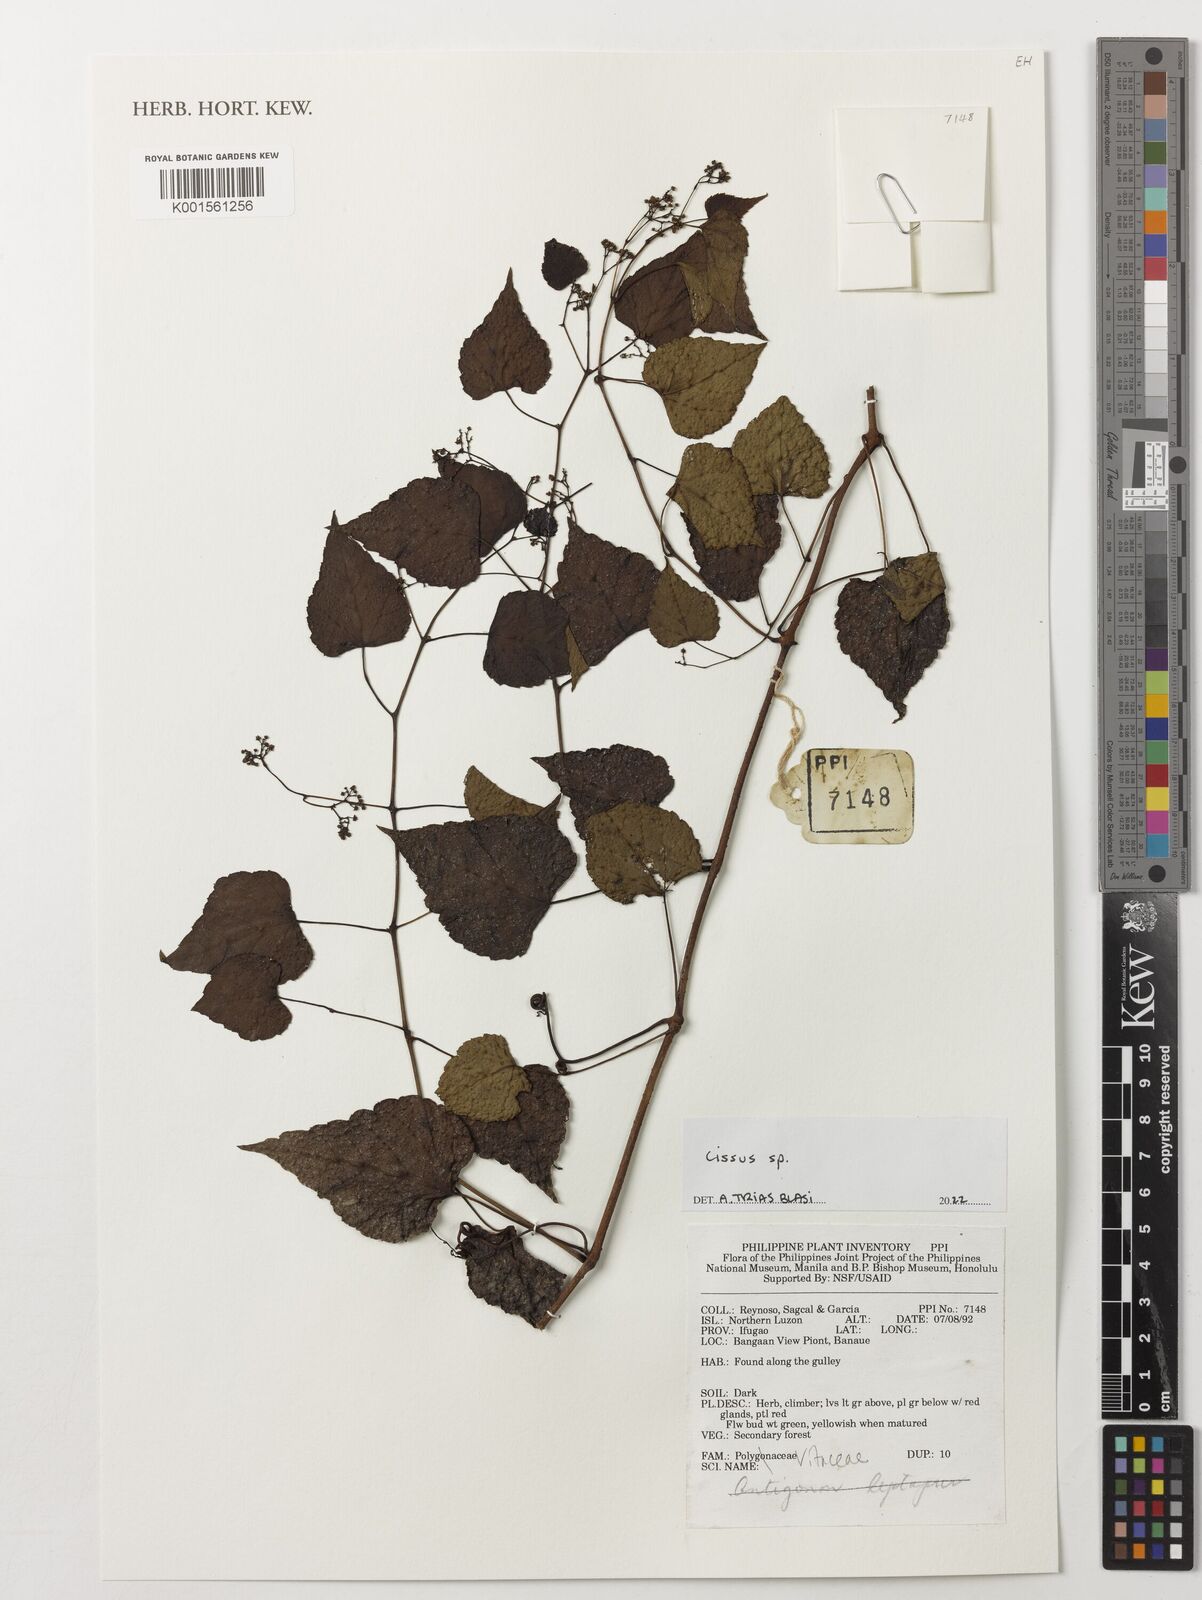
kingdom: Plantae
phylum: Tracheophyta
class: Magnoliopsida
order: Vitales
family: Vitaceae
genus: Cissus
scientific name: Cissus
